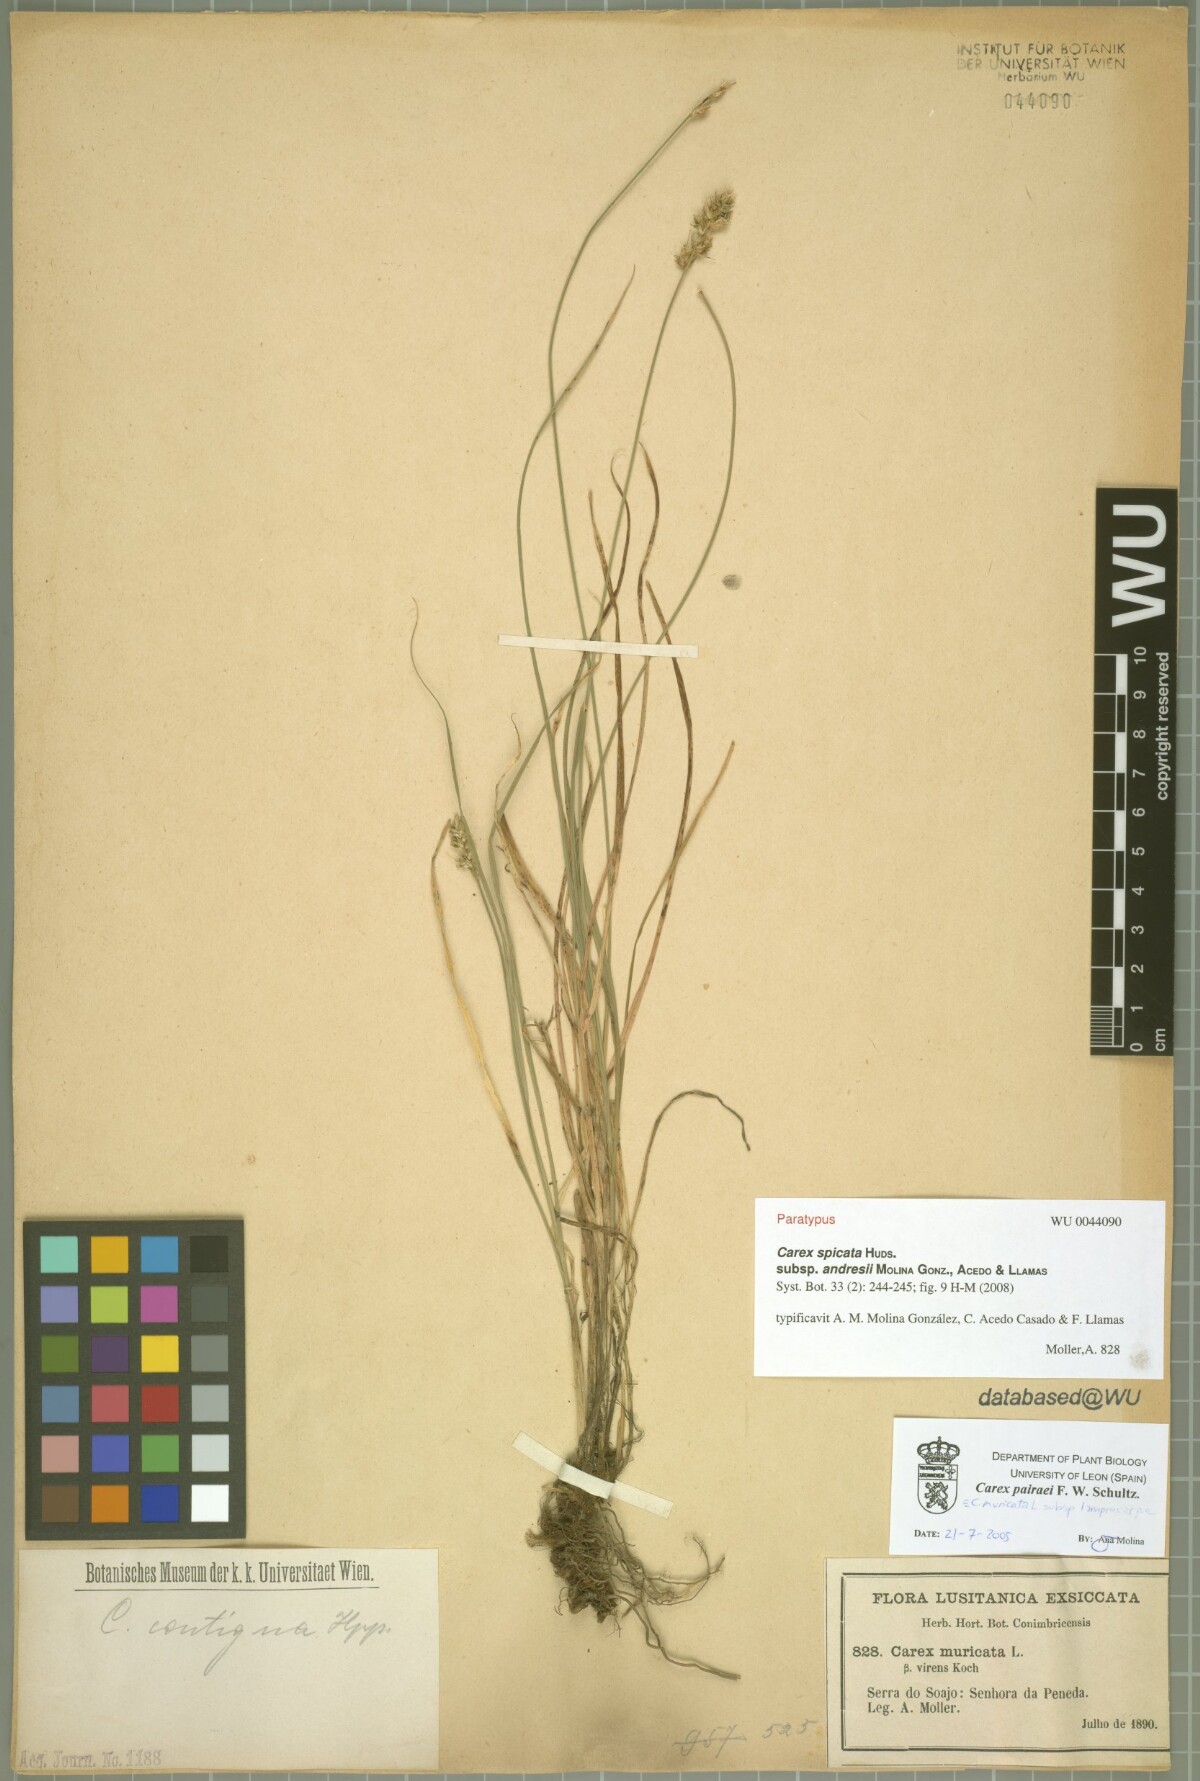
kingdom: Plantae
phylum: Tracheophyta
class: Liliopsida
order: Poales
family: Cyperaceae
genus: Carex
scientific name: Carex spicata
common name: Spiked sedge
